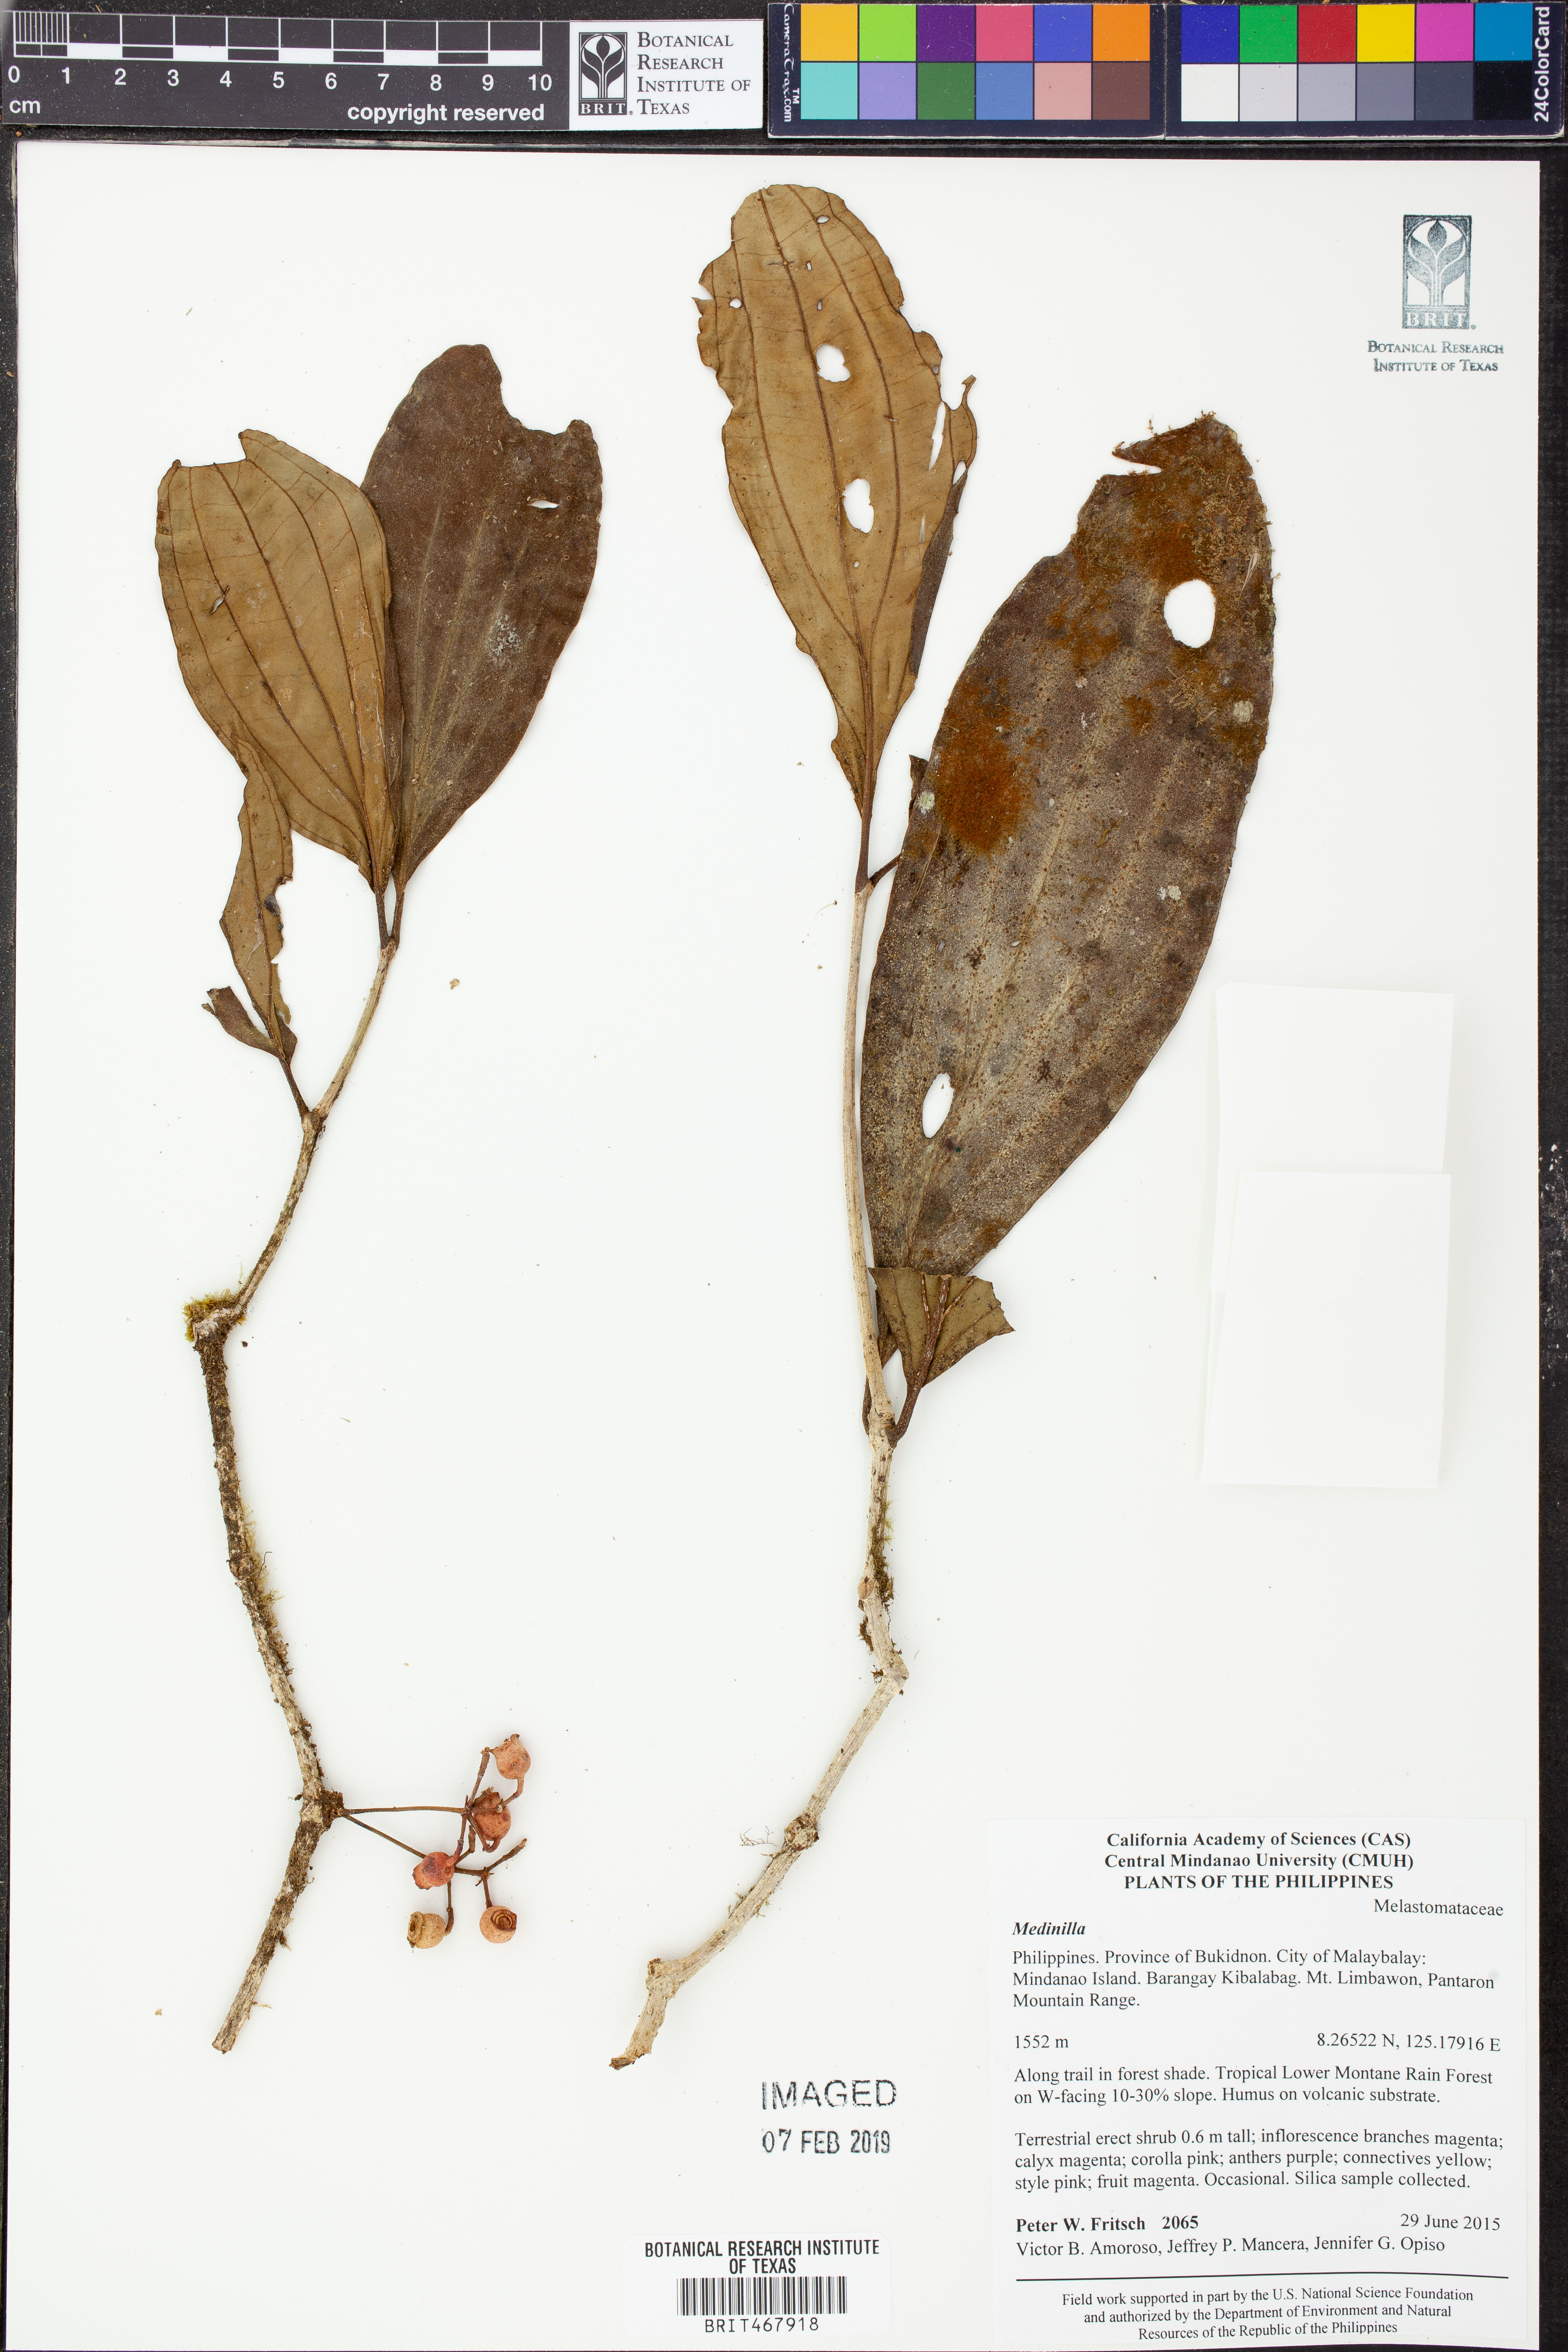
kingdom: Plantae
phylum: Tracheophyta
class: Magnoliopsida
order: Myrtales
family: Melastomataceae
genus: Medinilla
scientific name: Medinilla
